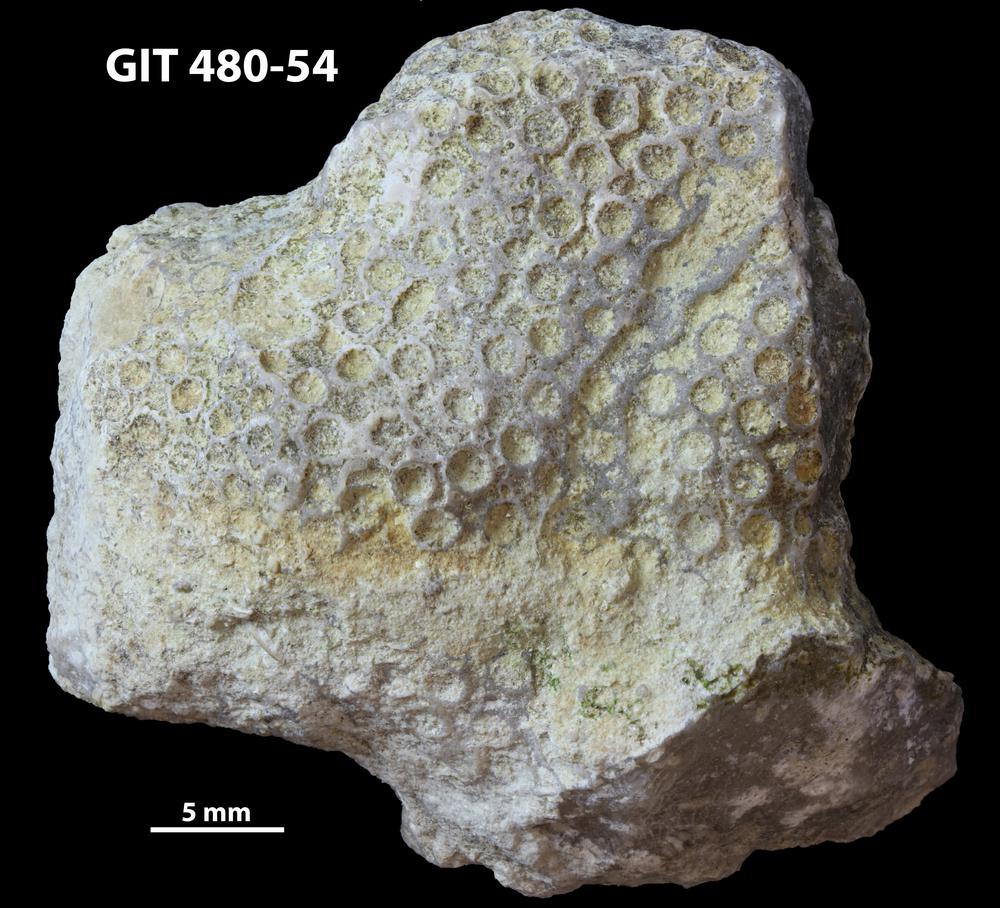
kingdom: Animalia
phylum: Xenacoelomorpha
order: Acoela
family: Proporidae
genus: Propora
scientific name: Propora
